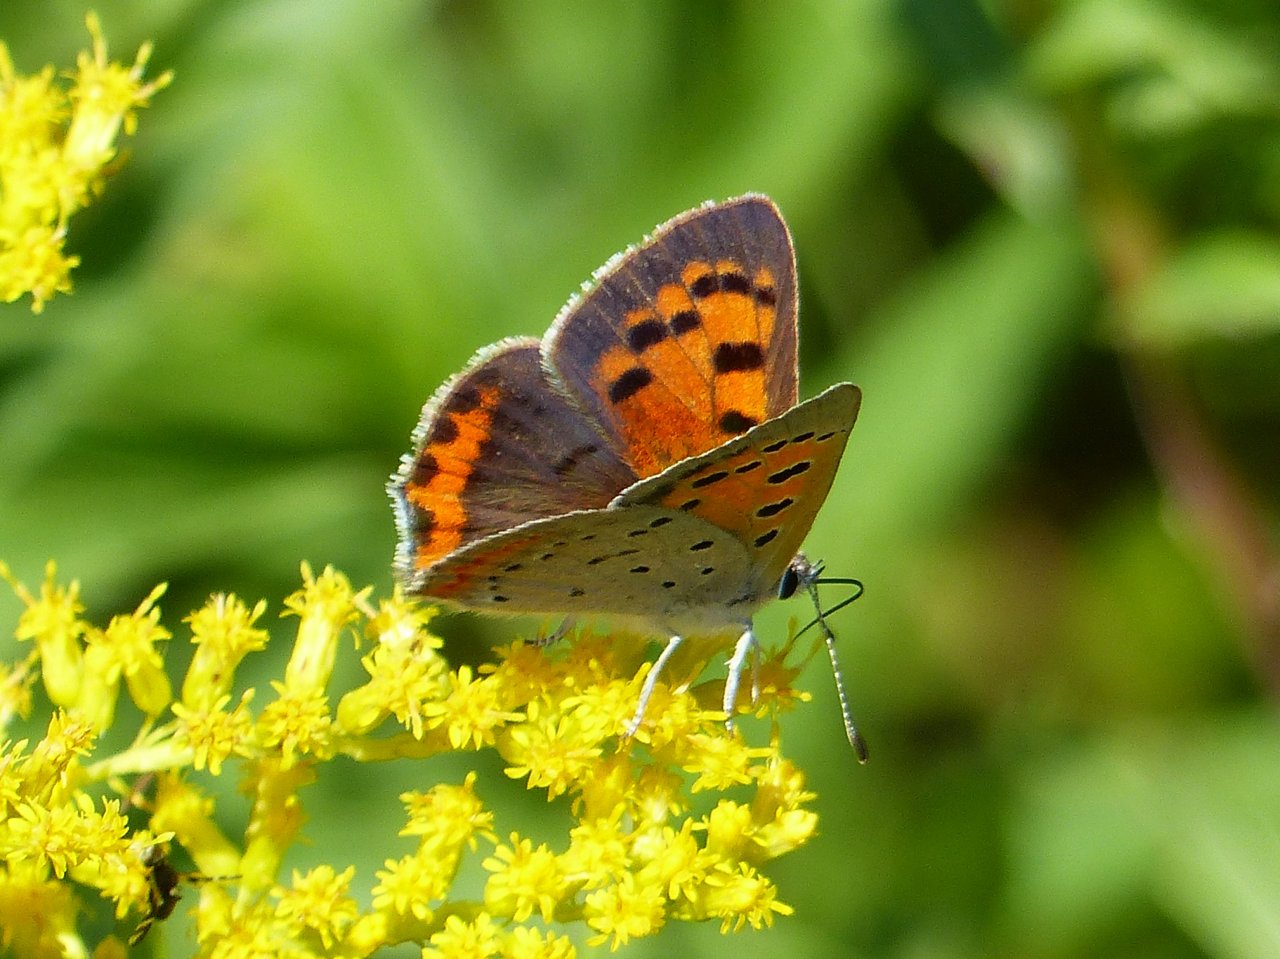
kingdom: Animalia
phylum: Arthropoda
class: Insecta
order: Lepidoptera
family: Lycaenidae
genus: Lycaena
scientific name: Lycaena phlaeas
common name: American Copper
